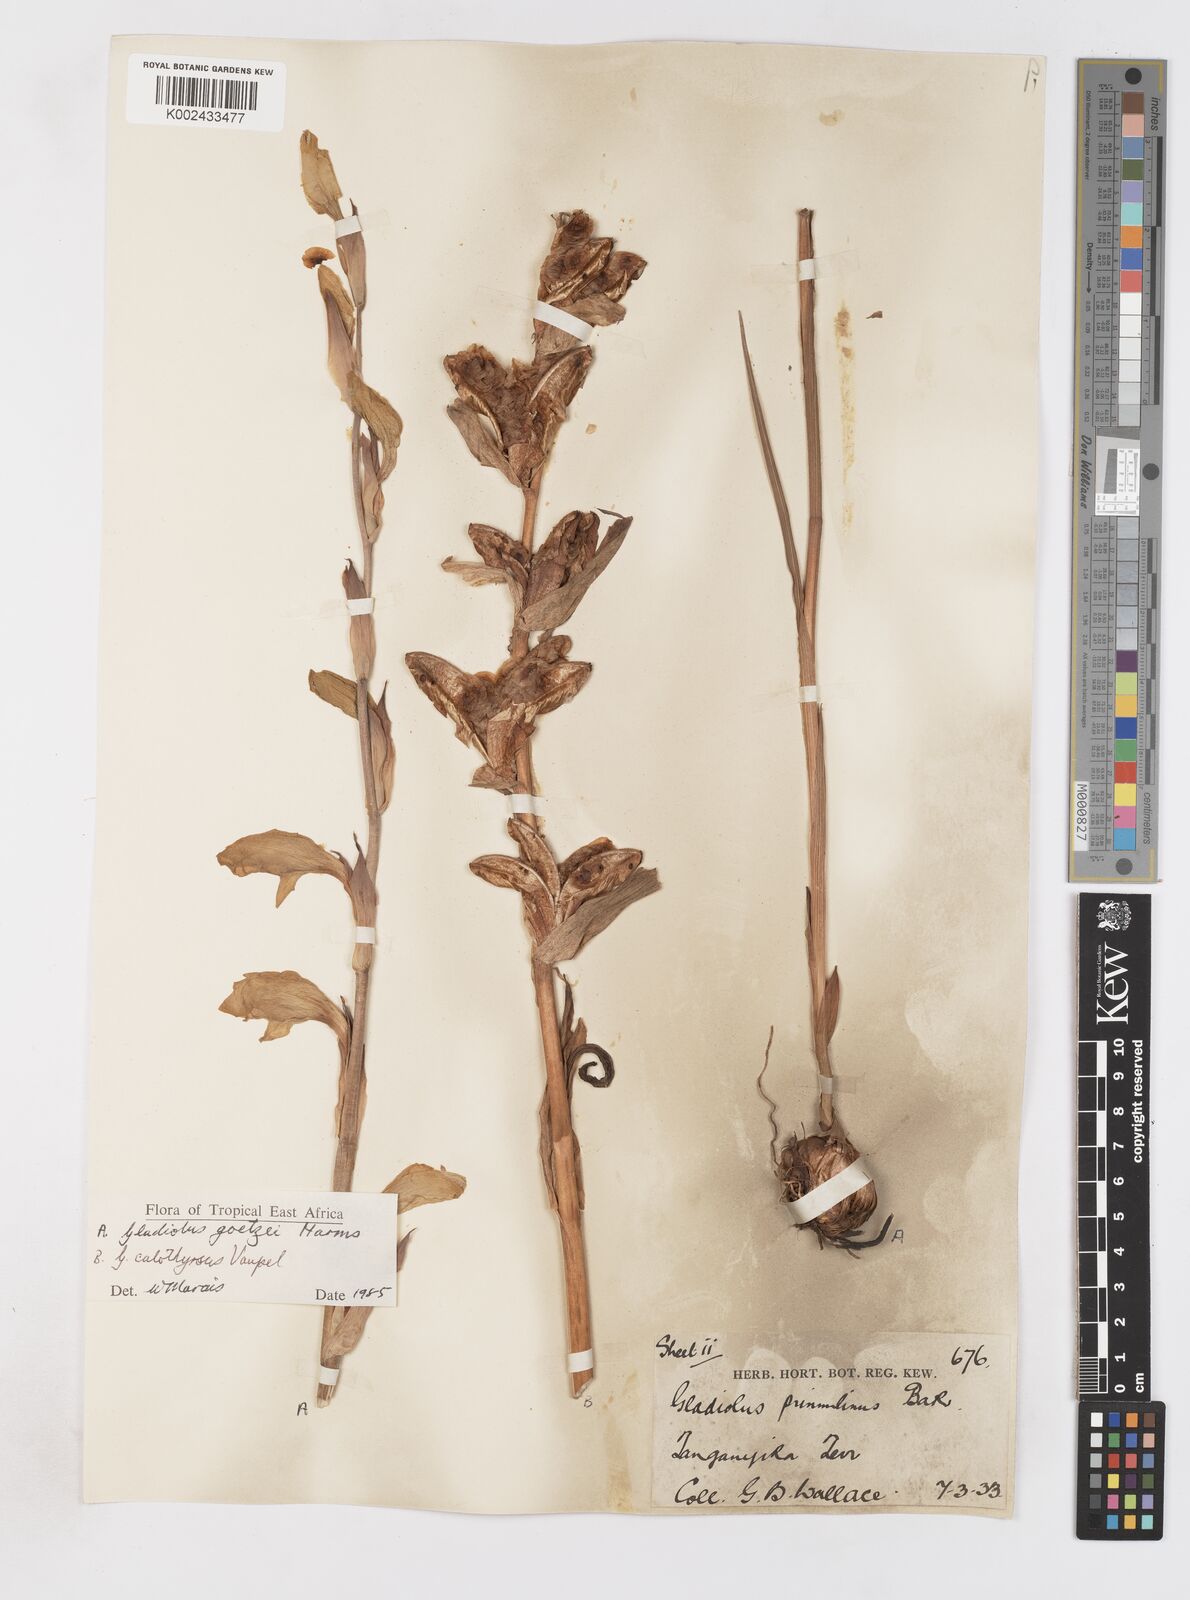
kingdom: Plantae
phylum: Tracheophyta
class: Liliopsida
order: Asparagales
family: Iridaceae
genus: Gladiolus
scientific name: Gladiolus dalenii
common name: Cornflag
